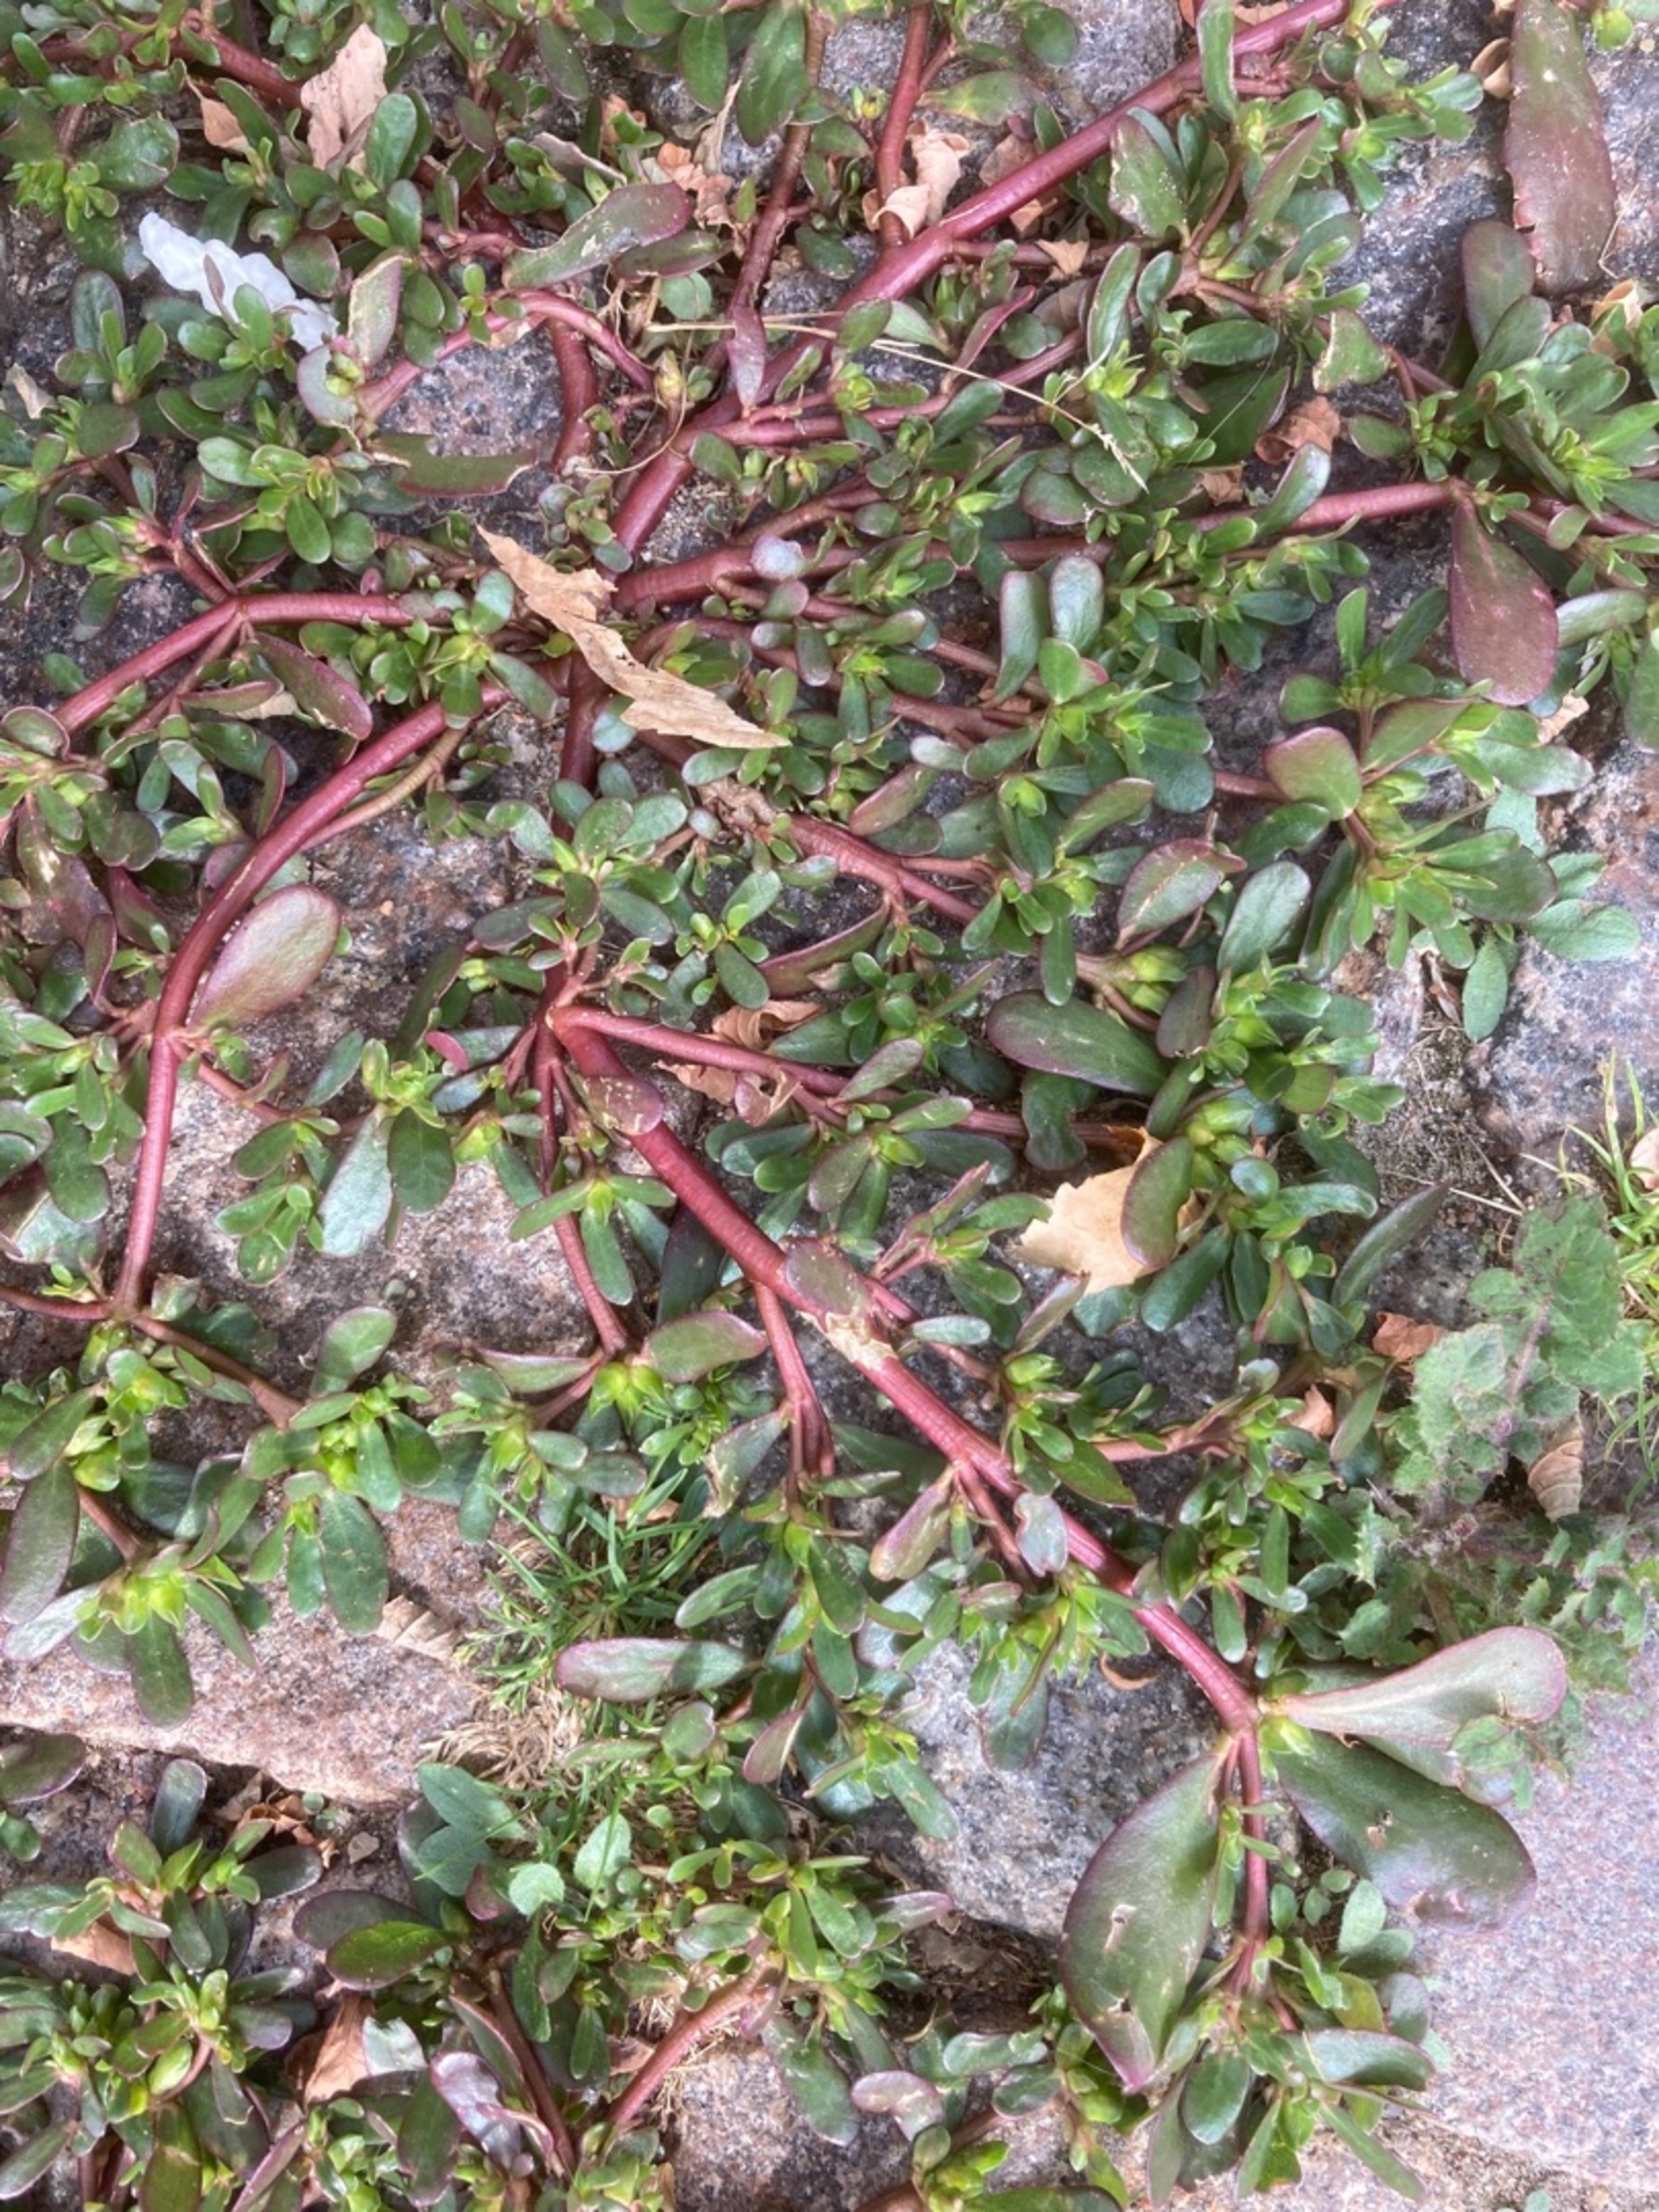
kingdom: Plantae
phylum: Tracheophyta
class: Magnoliopsida
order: Caryophyllales
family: Portulacaceae
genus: Portulaca
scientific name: Portulaca oleracea
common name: Vild portulak
